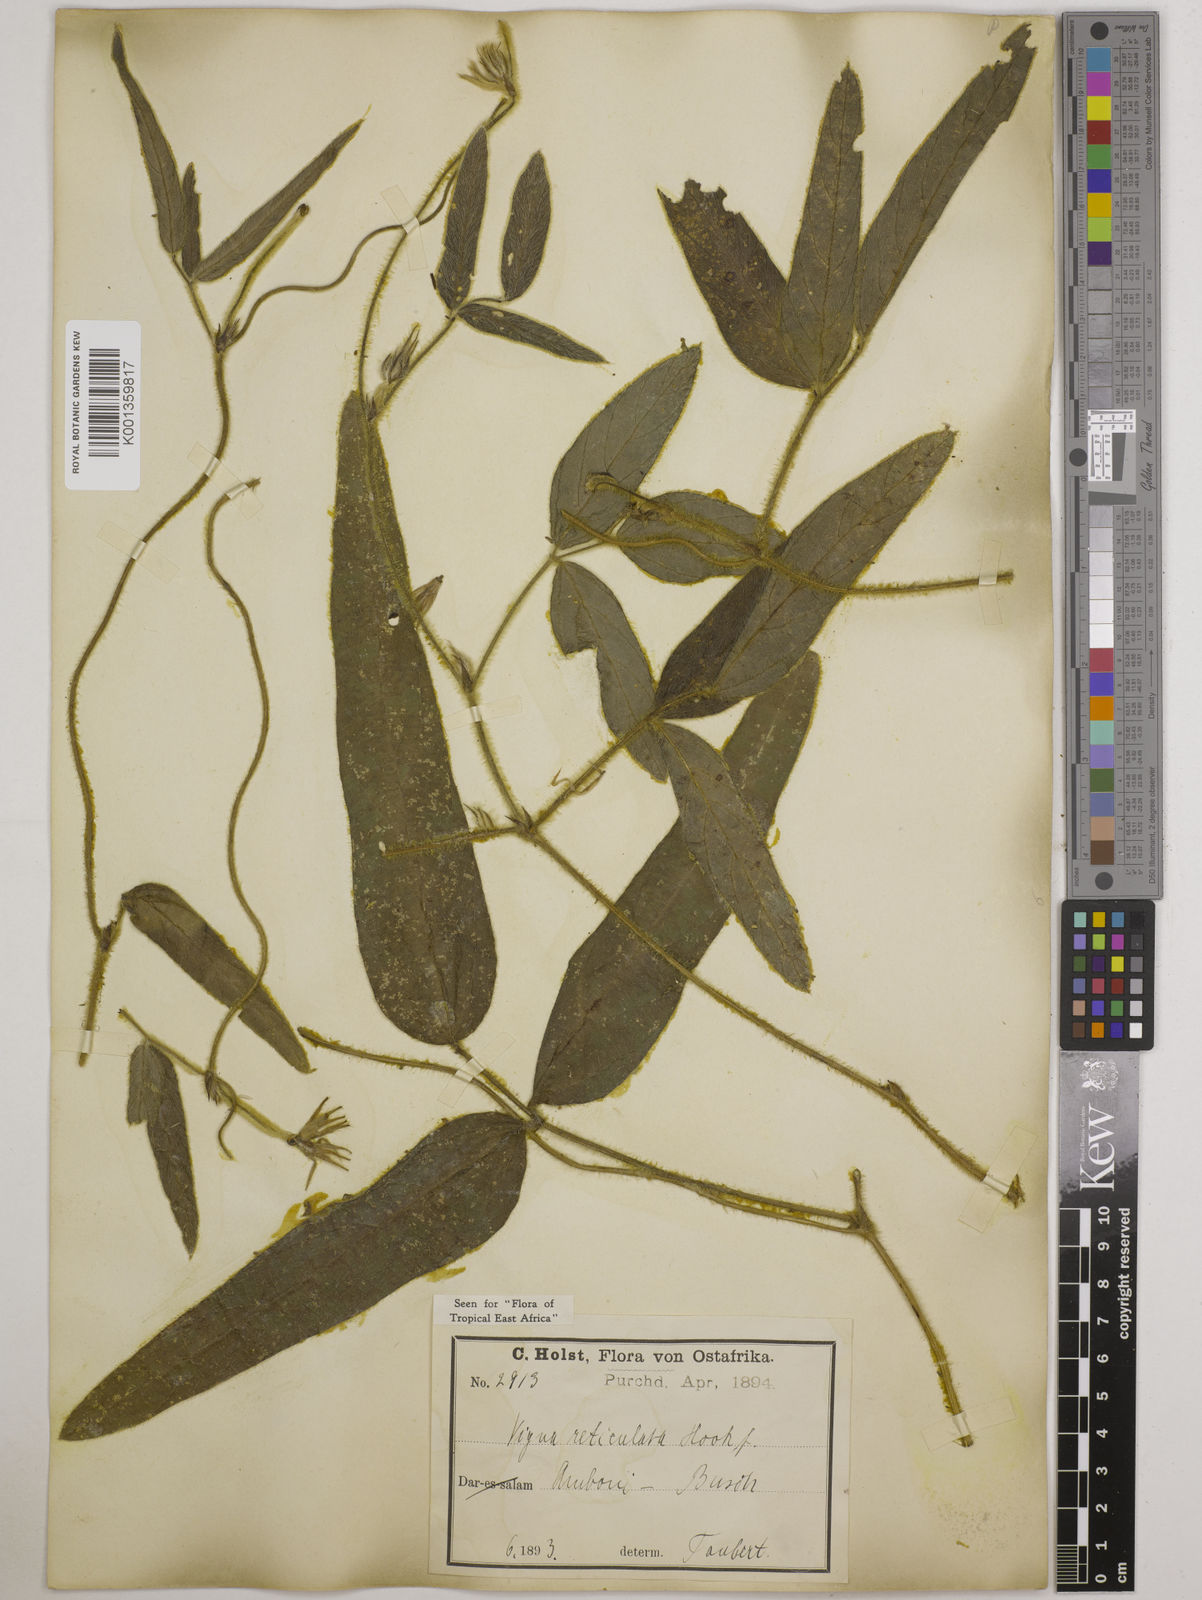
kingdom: Plantae
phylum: Tracheophyta
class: Magnoliopsida
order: Fabales
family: Fabaceae
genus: Vigna
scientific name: Vigna reticulata
